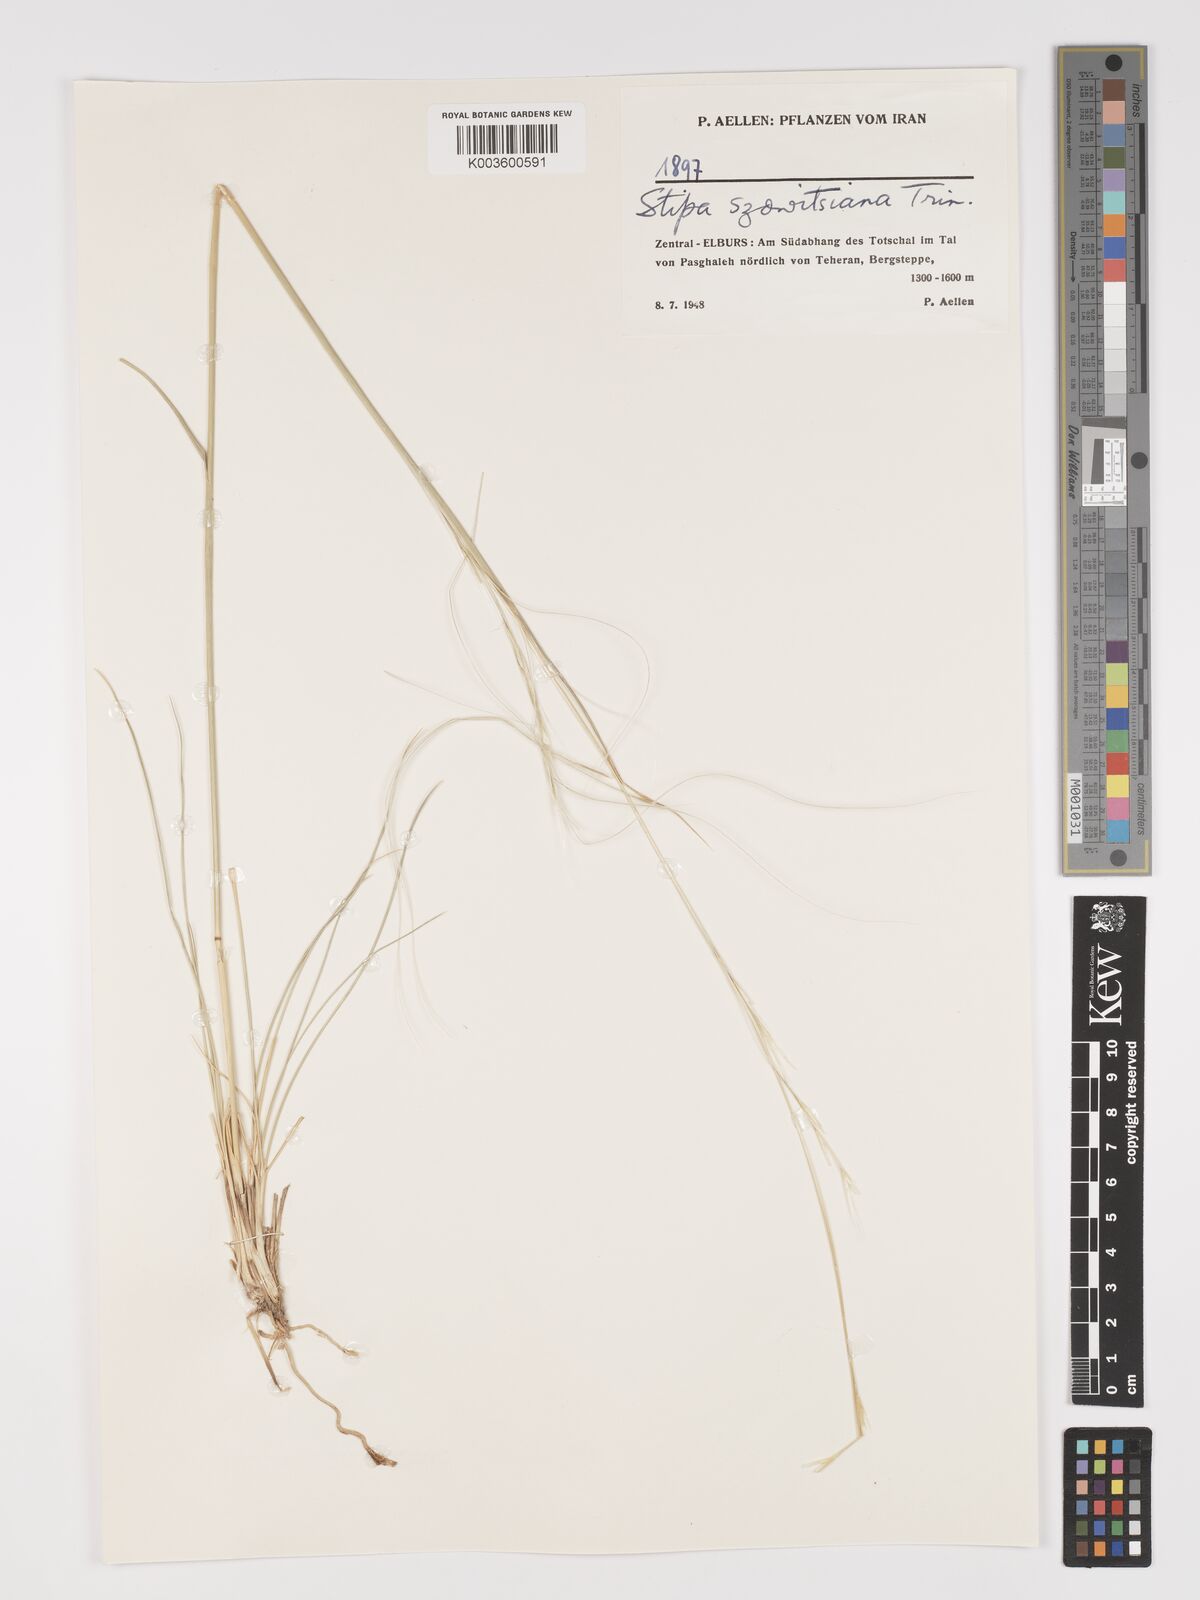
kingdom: Plantae
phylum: Tracheophyta
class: Liliopsida
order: Poales
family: Poaceae
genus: Stipa
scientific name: Stipa barbata
